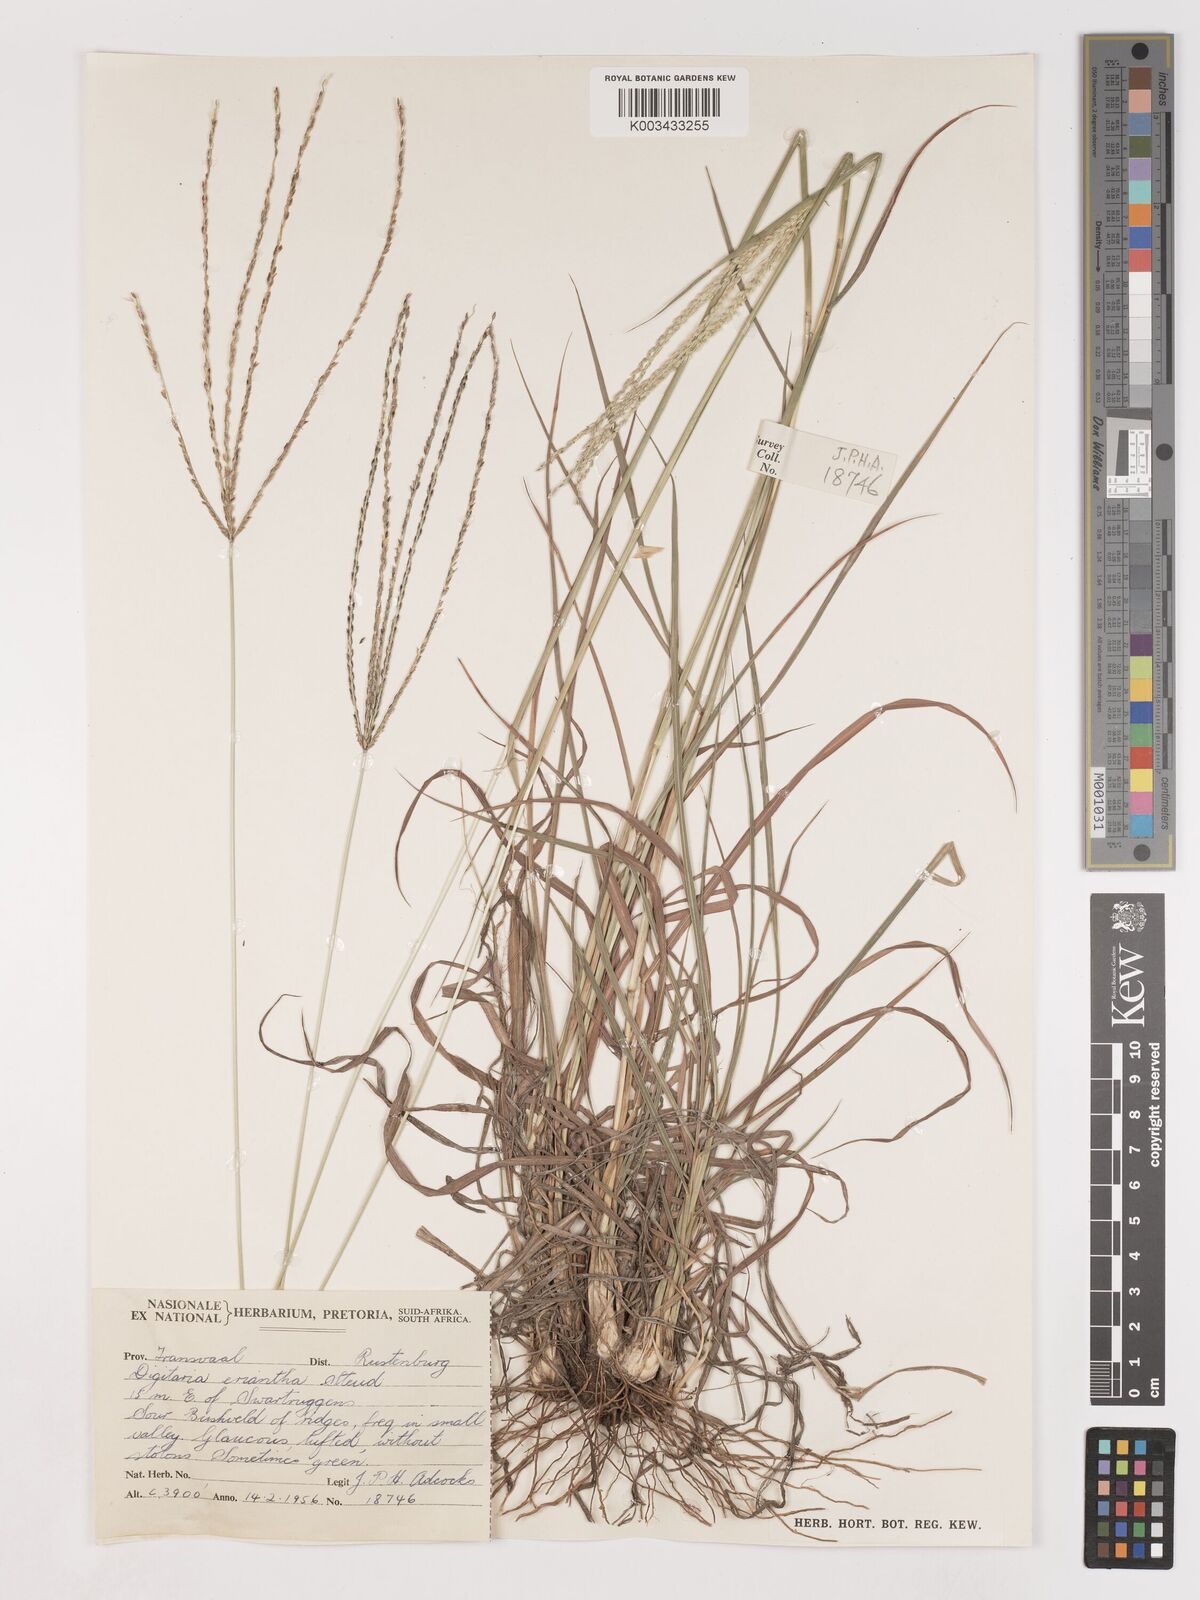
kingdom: Plantae
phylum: Tracheophyta
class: Liliopsida
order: Poales
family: Poaceae
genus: Digitaria
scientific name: Digitaria eriantha
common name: Digitgrass
